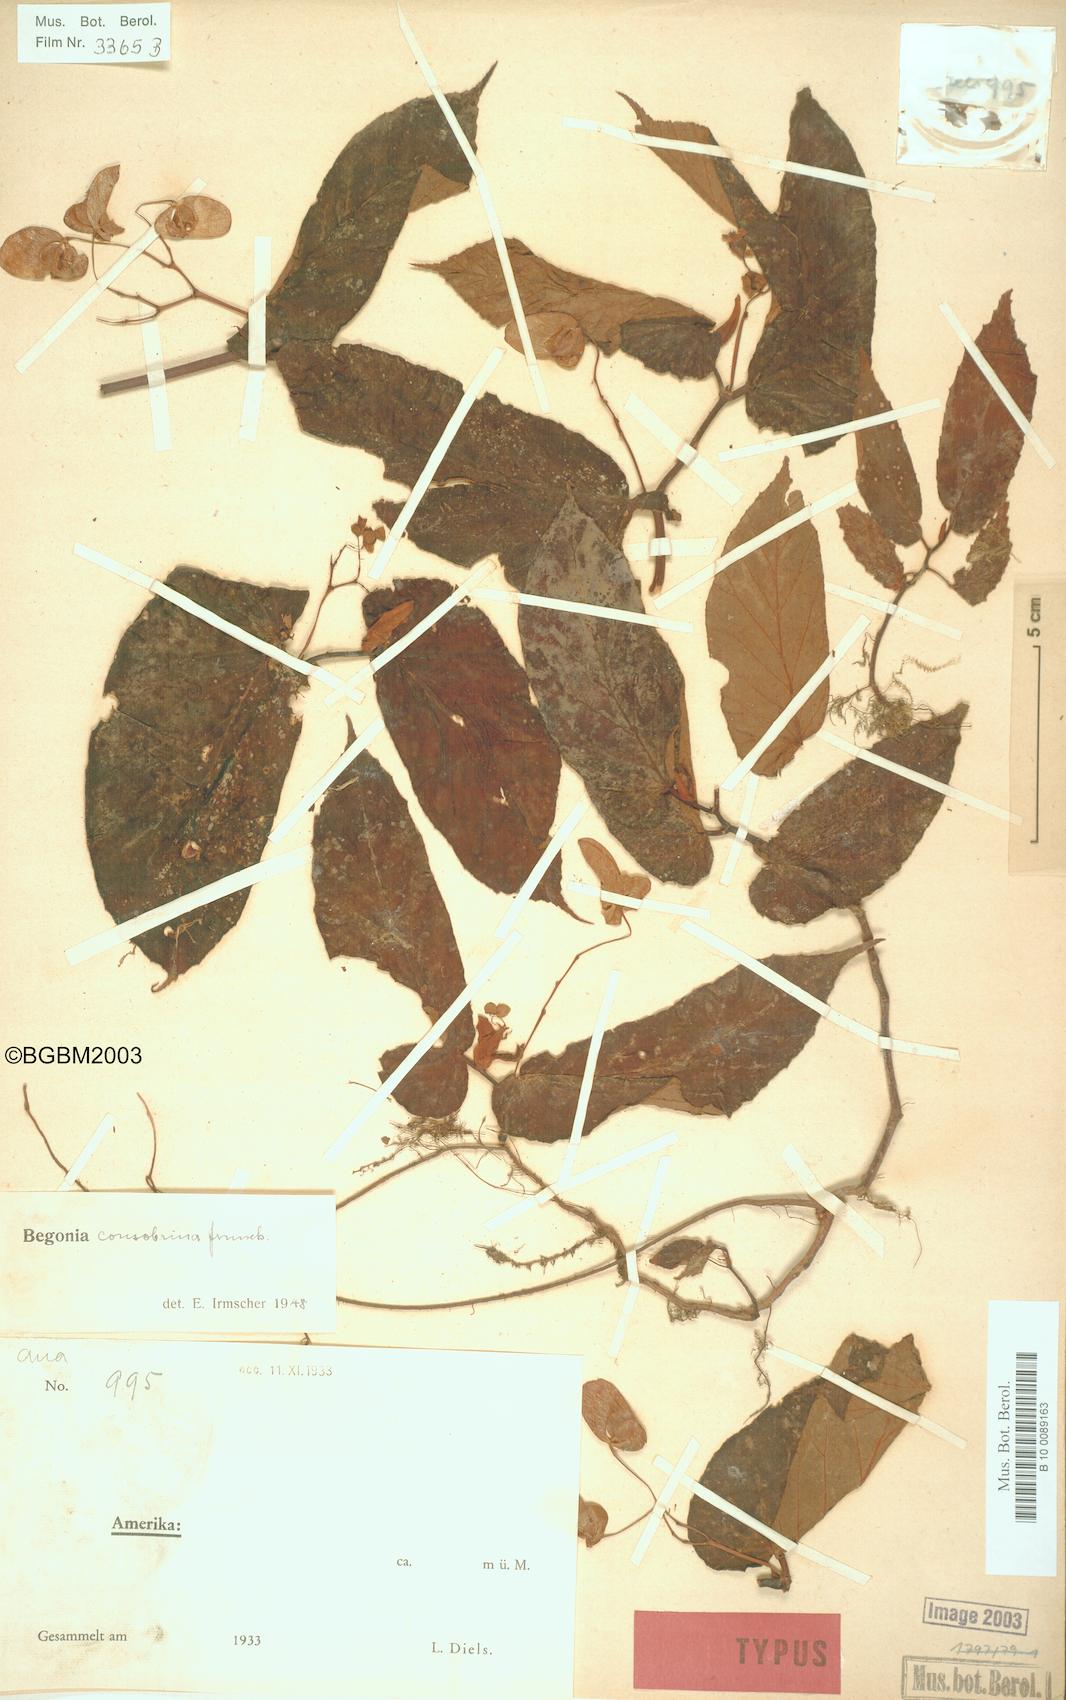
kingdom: Plantae
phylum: Tracheophyta
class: Magnoliopsida
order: Cucurbitales
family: Begoniaceae
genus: Begonia
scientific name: Begonia consobrina
